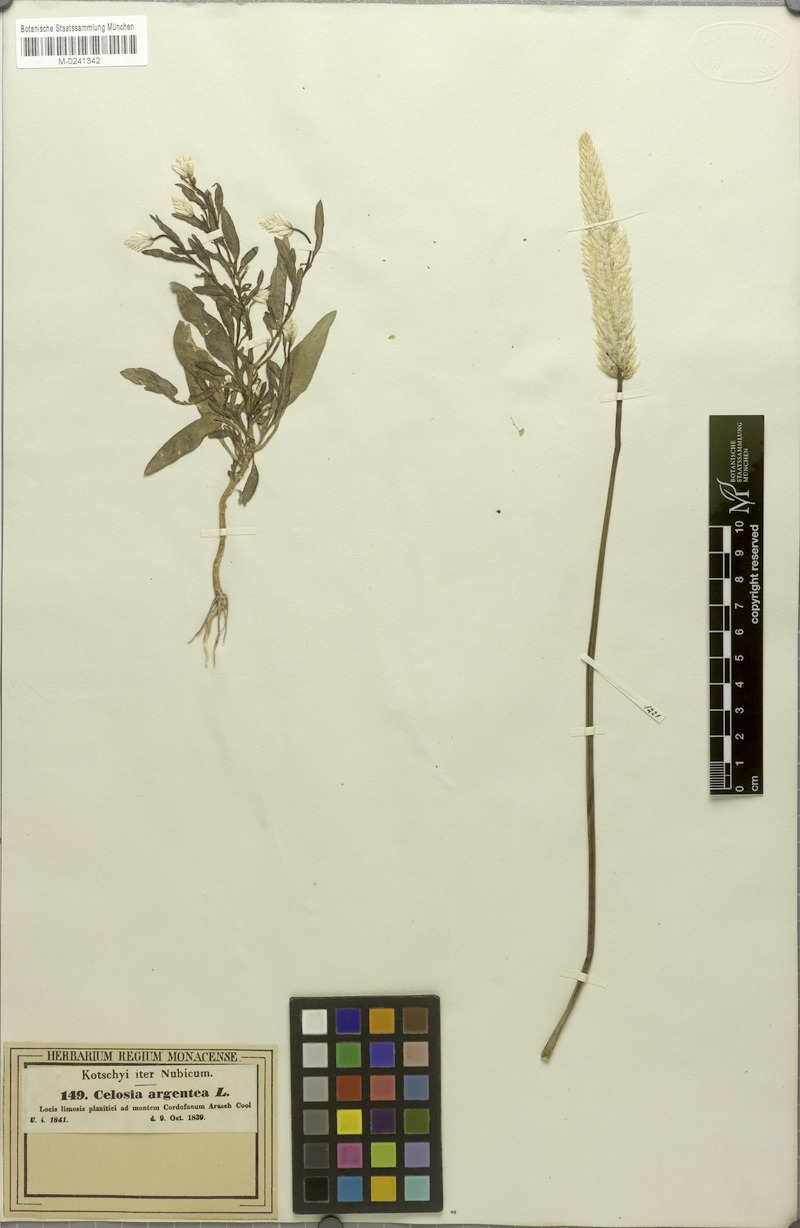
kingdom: Plantae
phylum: Tracheophyta
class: Magnoliopsida
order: Caryophyllales
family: Amaranthaceae
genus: Celosia
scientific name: Celosia argentea
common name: Feather cockscomb
